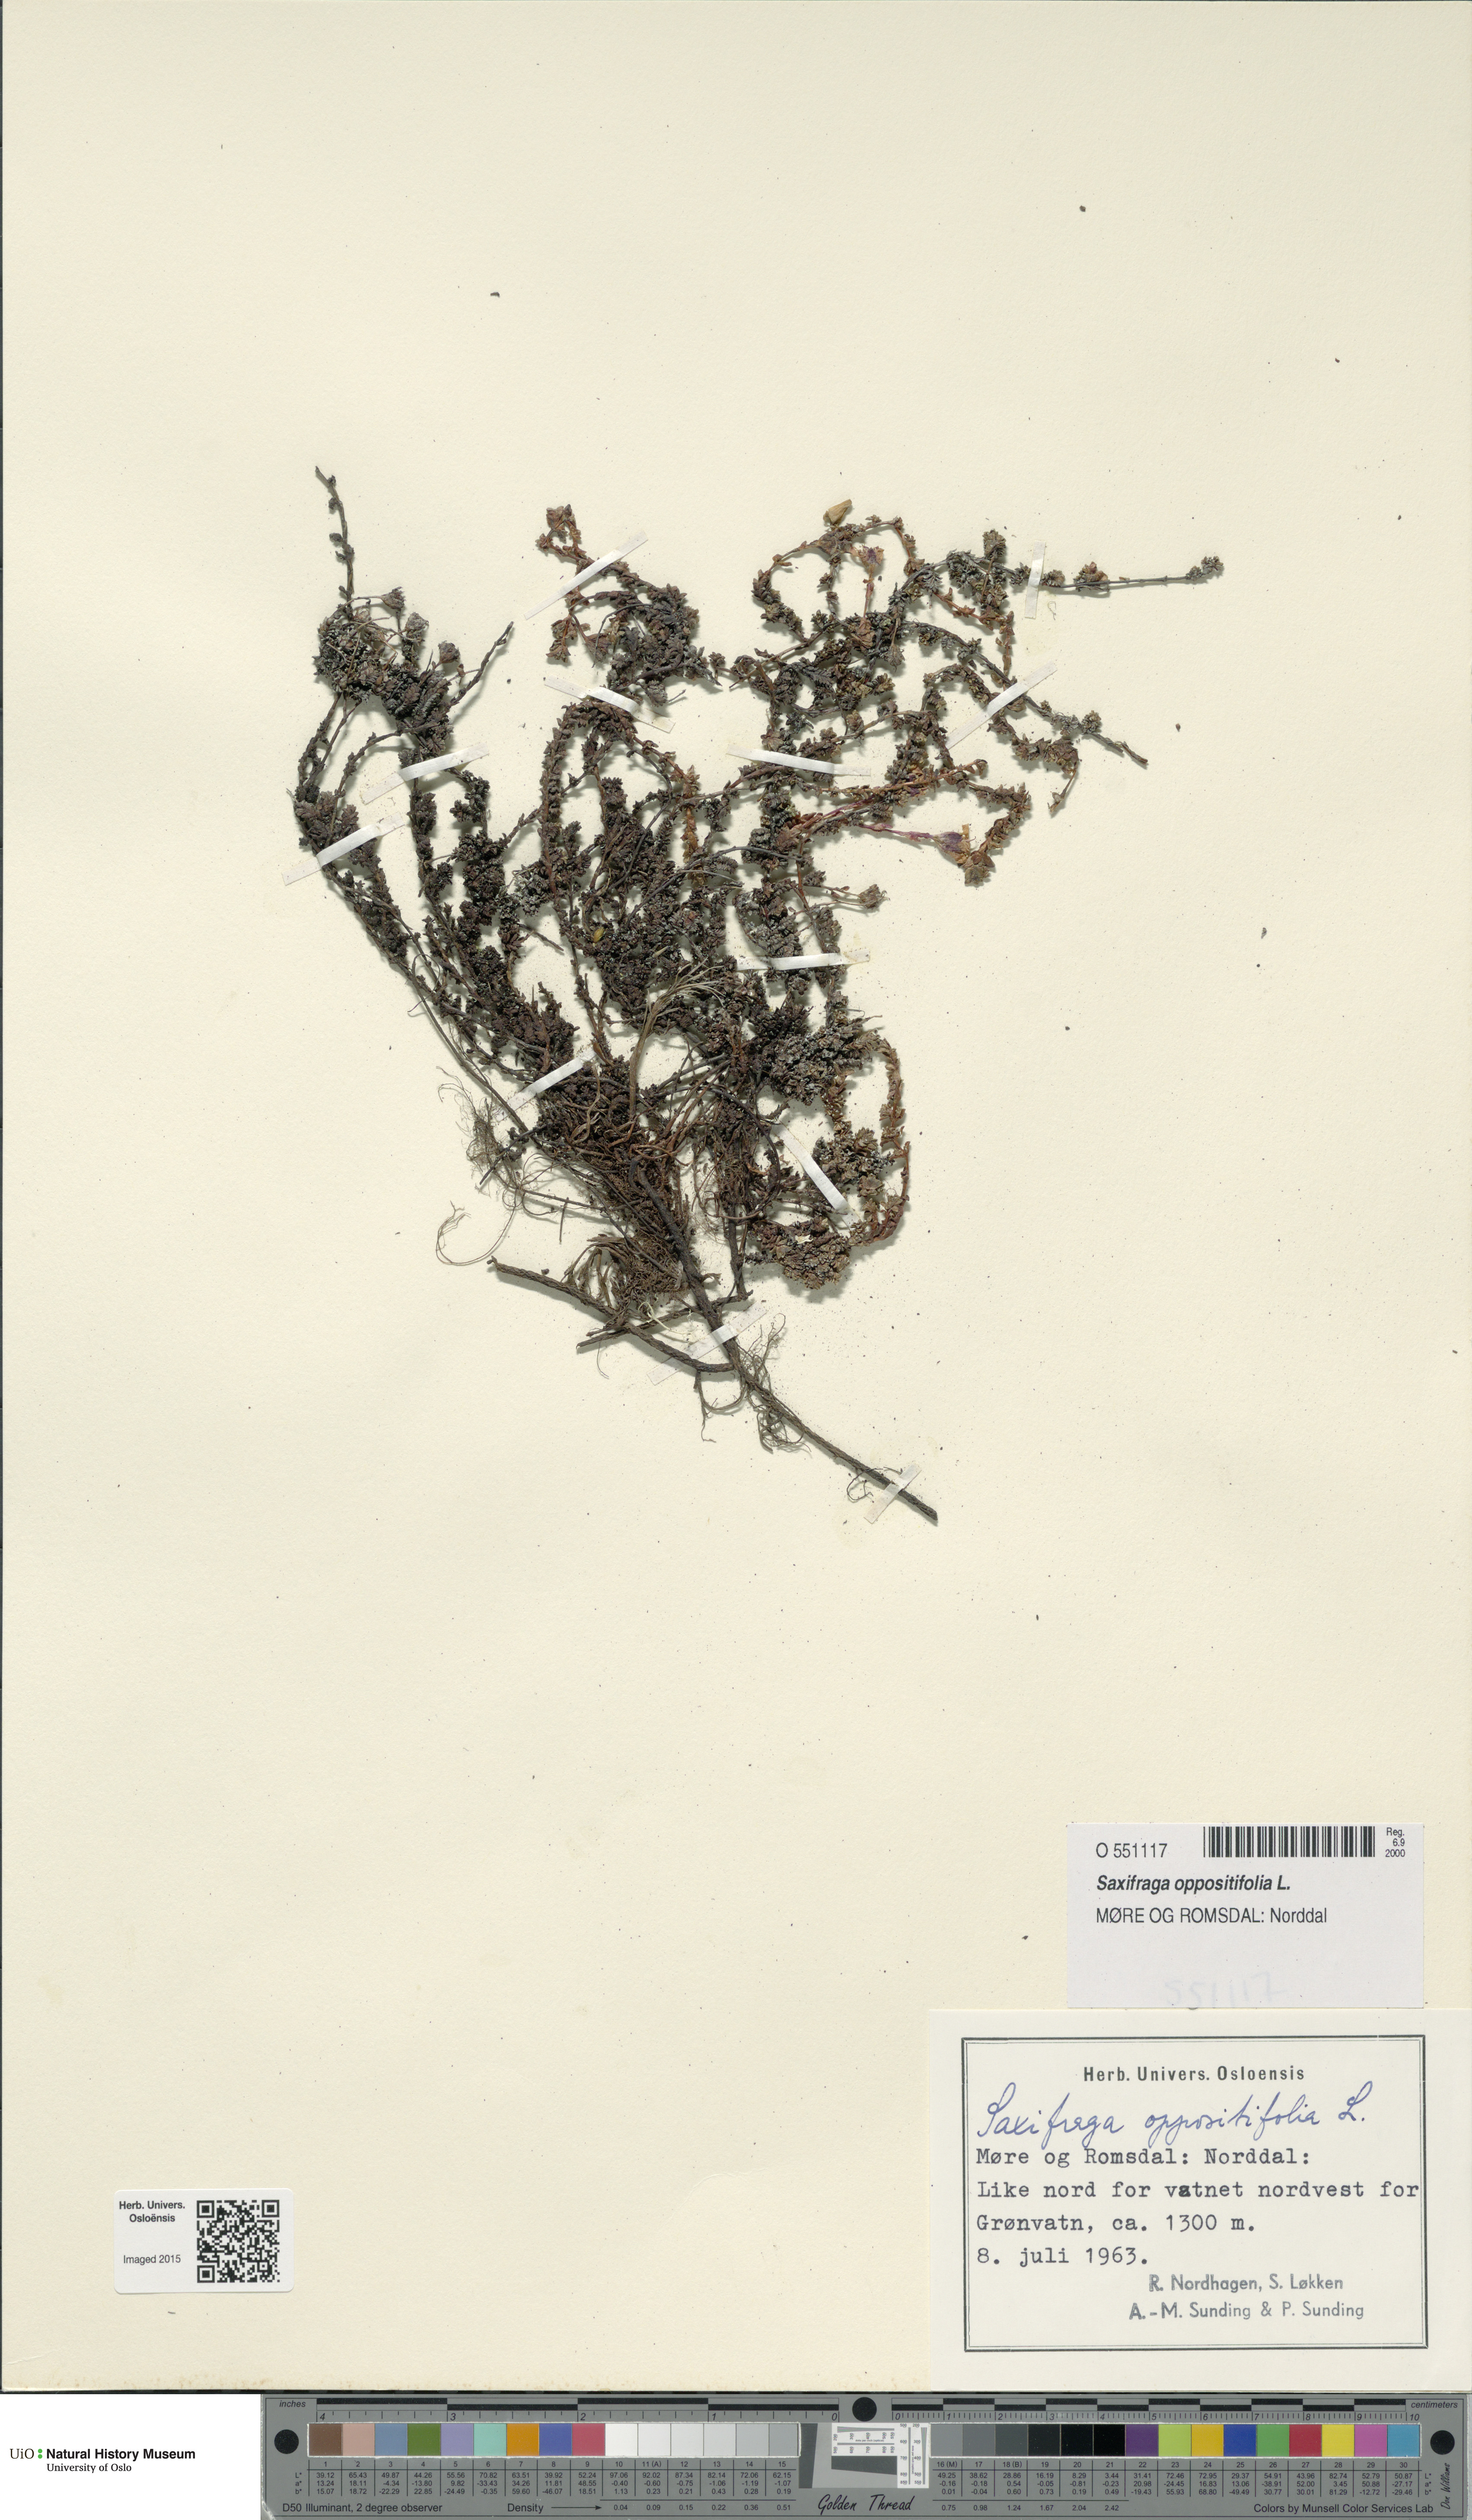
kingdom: Plantae
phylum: Tracheophyta
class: Magnoliopsida
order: Saxifragales
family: Saxifragaceae
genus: Saxifraga
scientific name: Saxifraga oppositifolia
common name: Purple saxifrage
